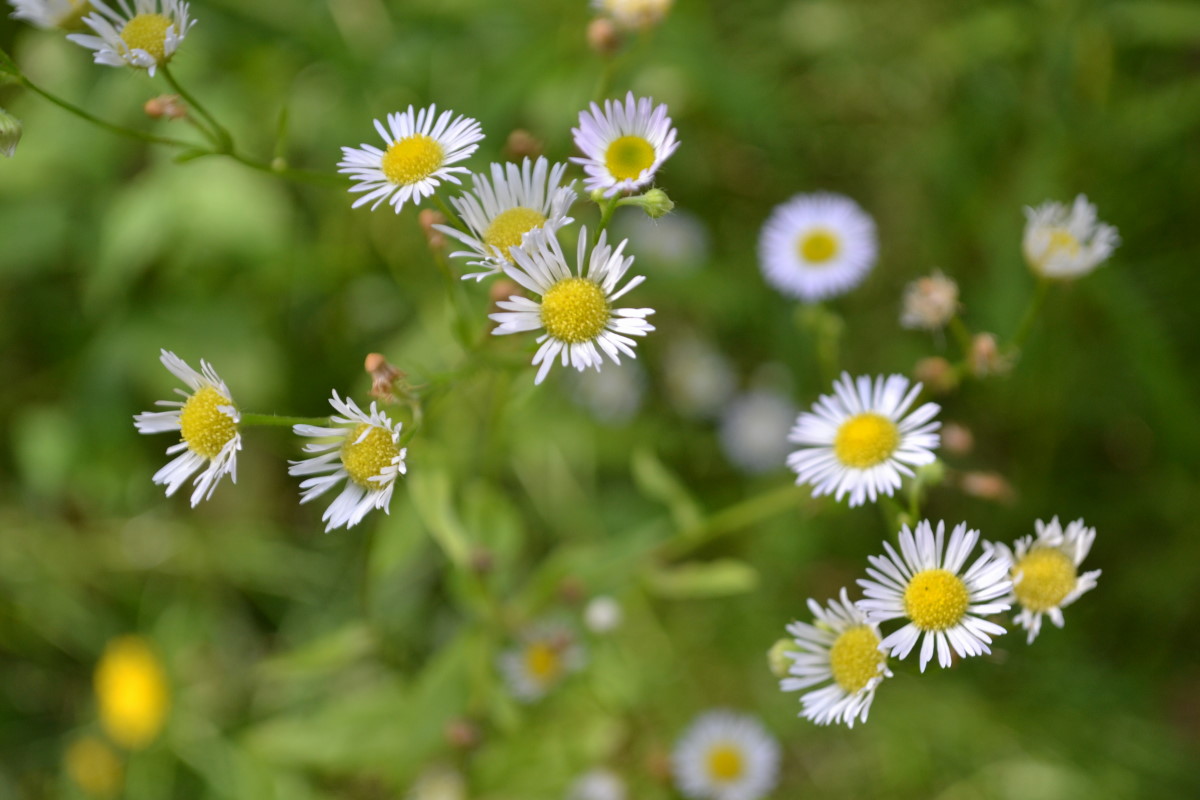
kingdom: Plantae
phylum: Tracheophyta
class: Magnoliopsida
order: Asterales
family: Asteraceae
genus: Erigeron
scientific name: Erigeron annuus
